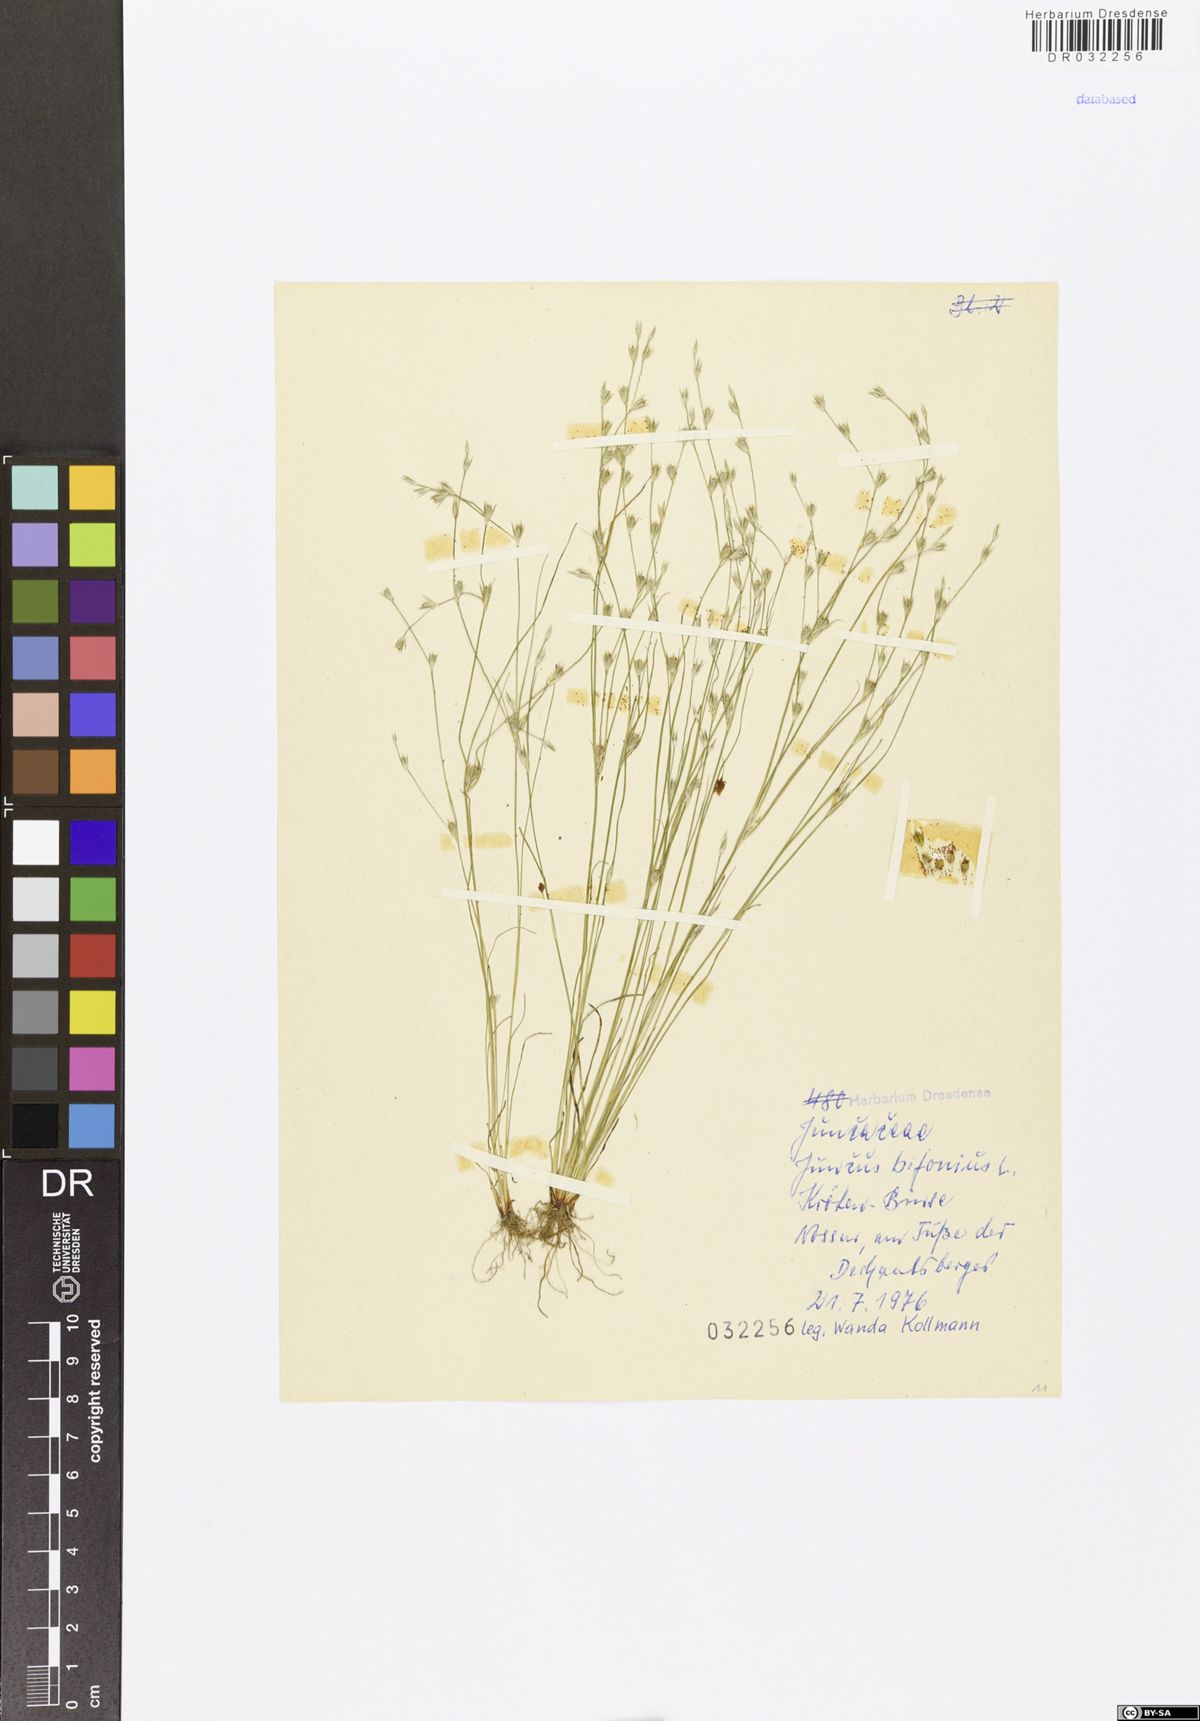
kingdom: Plantae
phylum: Tracheophyta
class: Liliopsida
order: Poales
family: Juncaceae
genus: Juncus
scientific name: Juncus bufonius
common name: Toad rush
